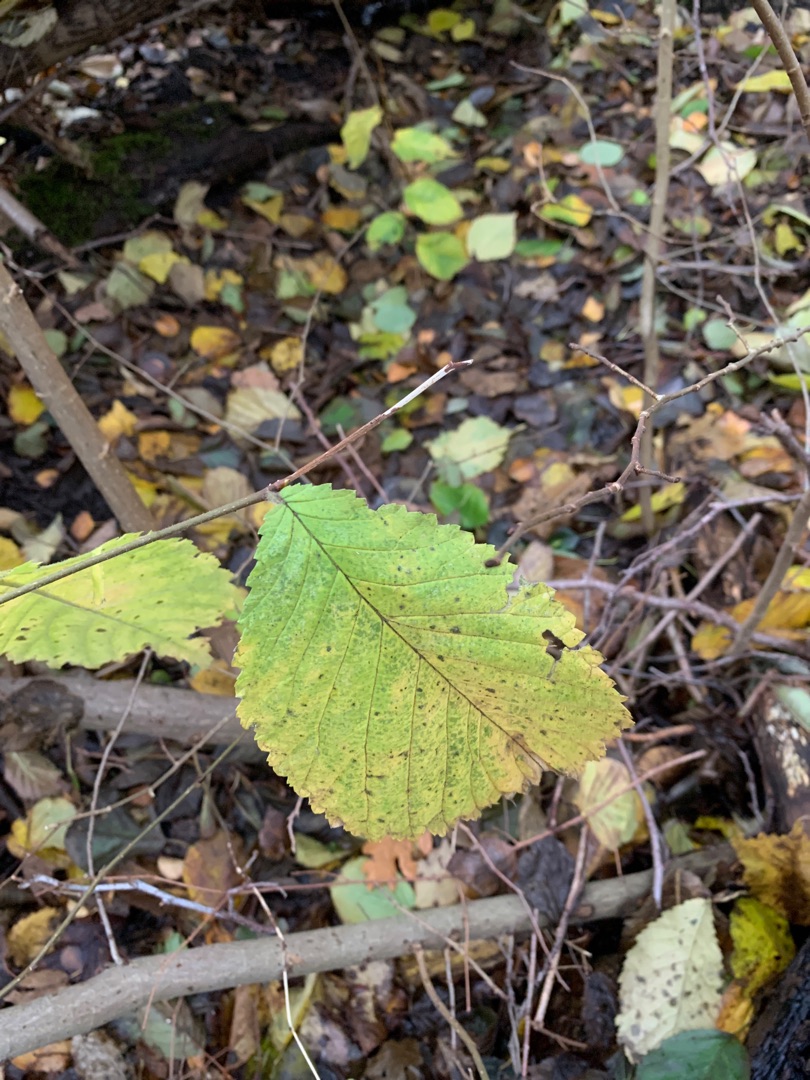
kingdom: Plantae
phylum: Tracheophyta
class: Magnoliopsida
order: Rosales
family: Ulmaceae
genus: Ulmus
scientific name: Ulmus glabra
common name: Skov-elm/storbladet elm
